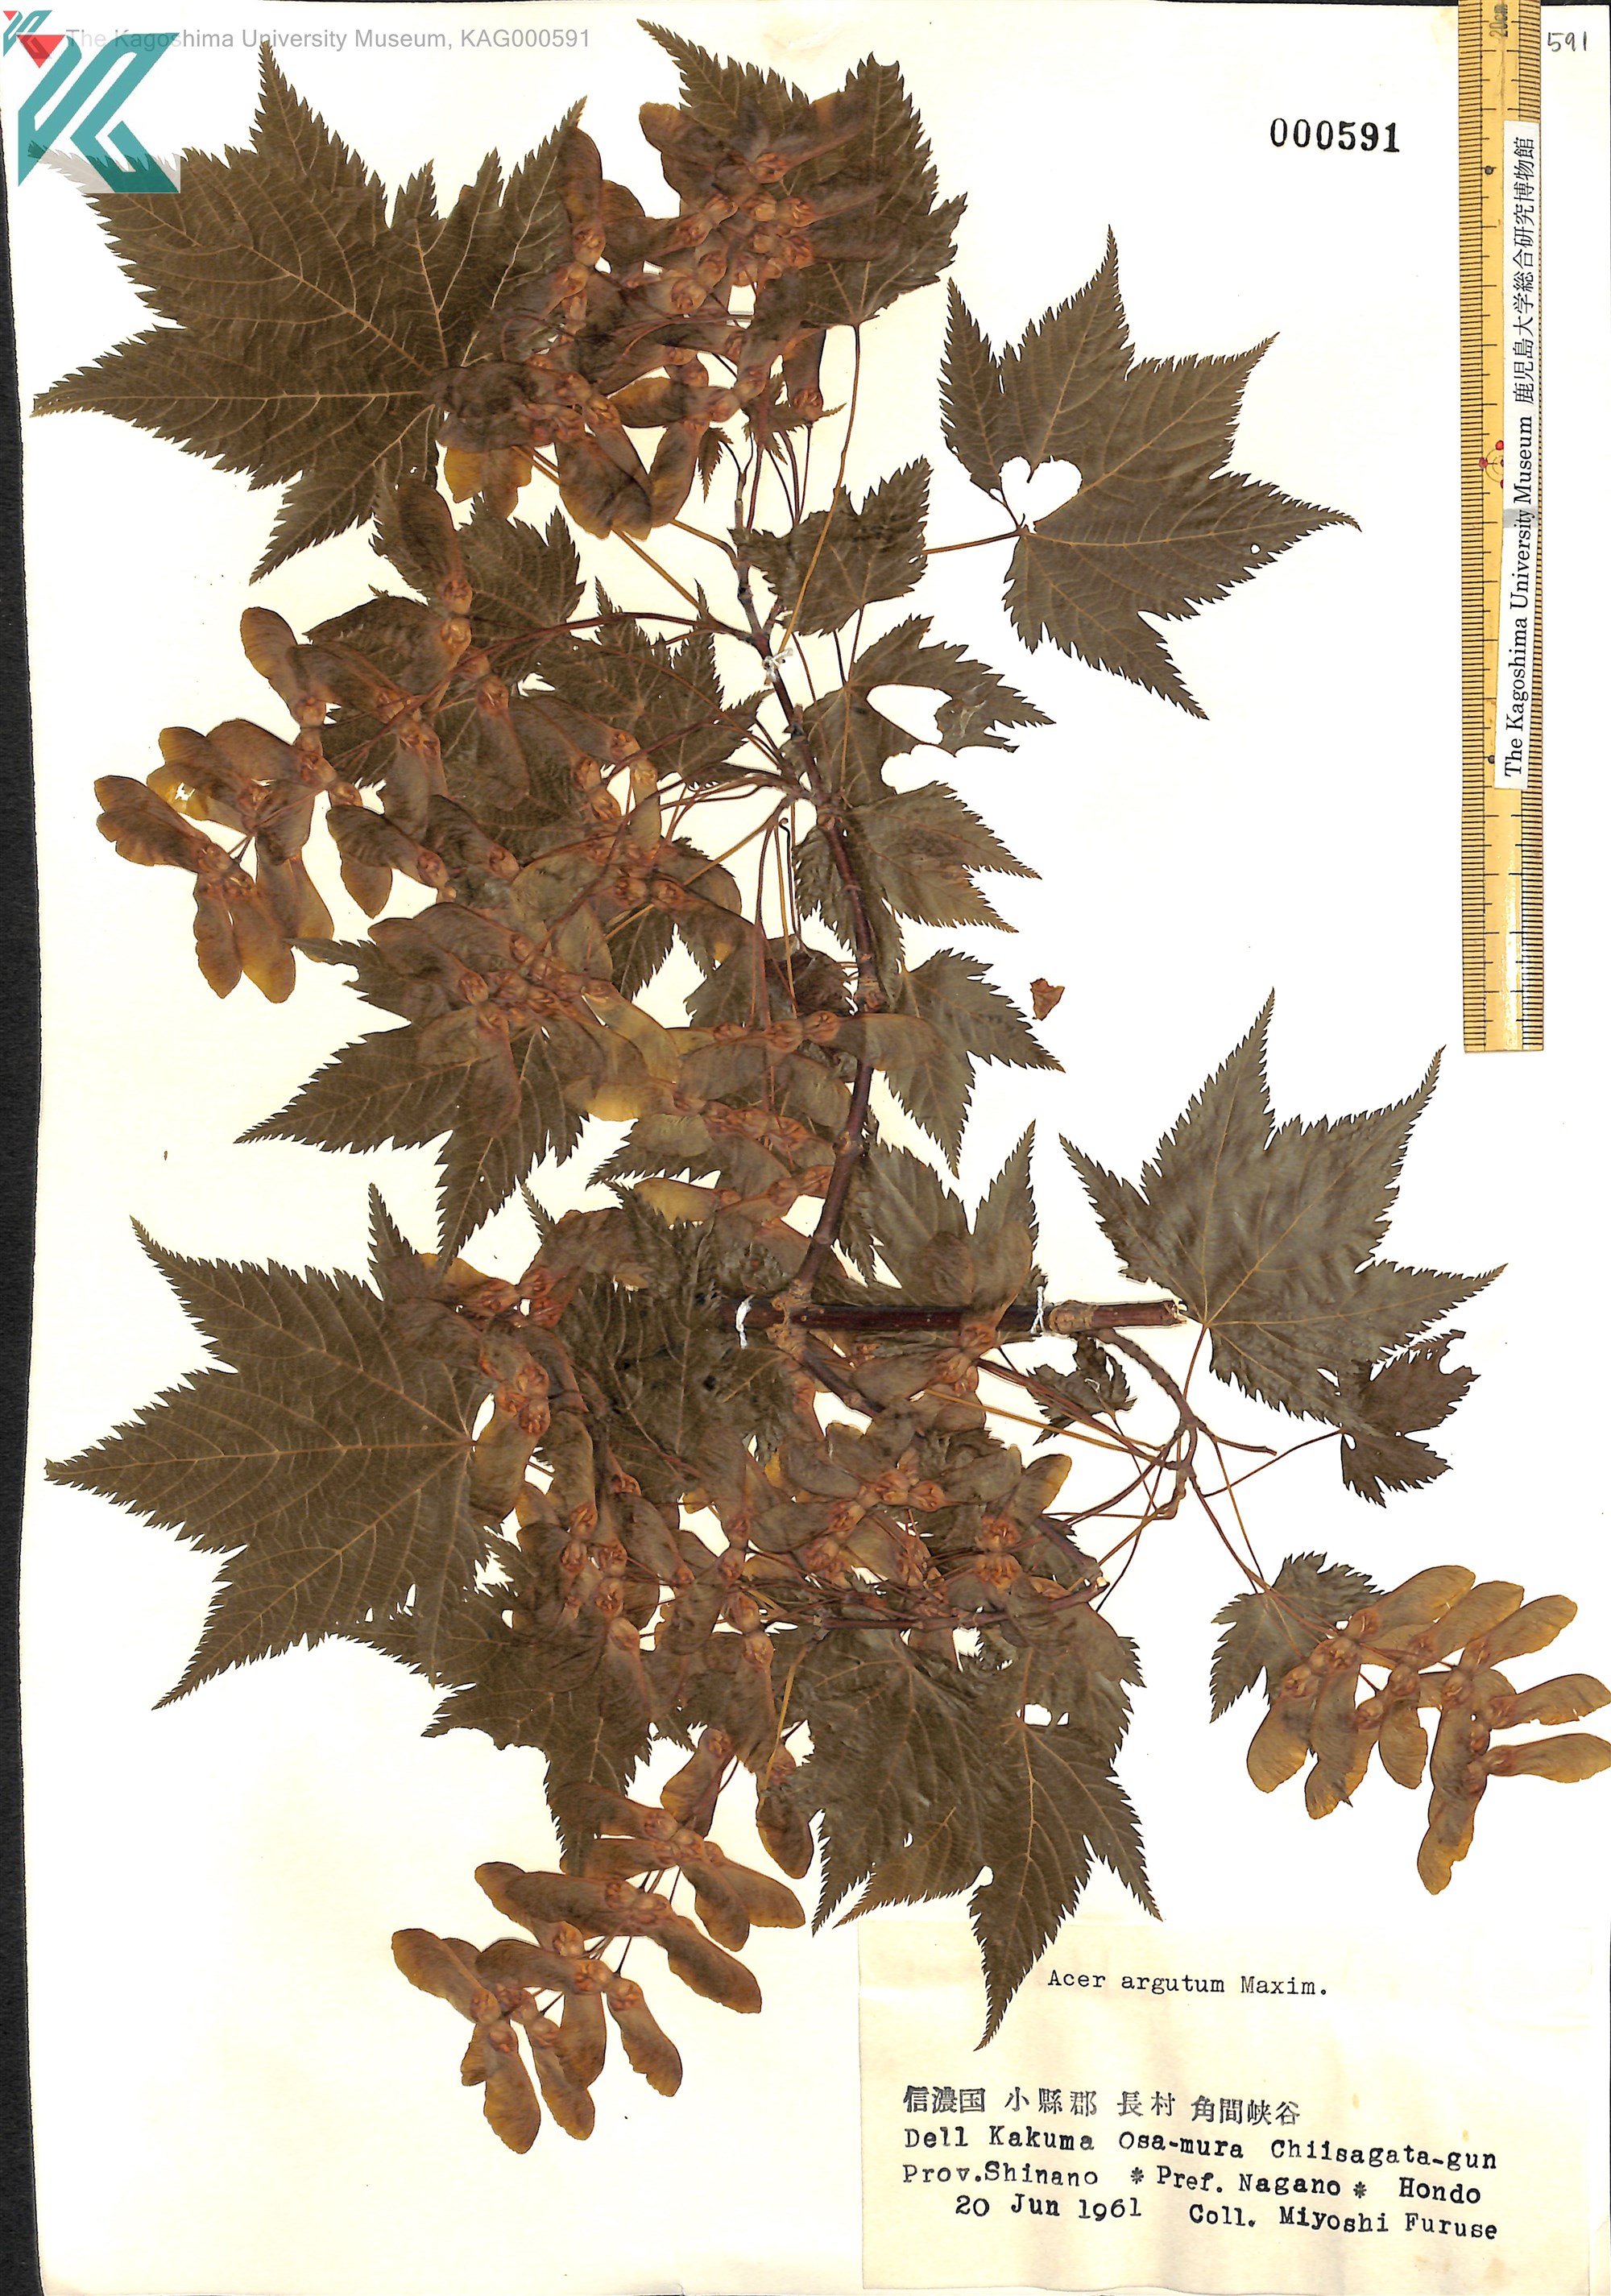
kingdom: Plantae
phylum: Tracheophyta
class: Magnoliopsida
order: Sapindales
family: Sapindaceae
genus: Acer
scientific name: Acer argutum
